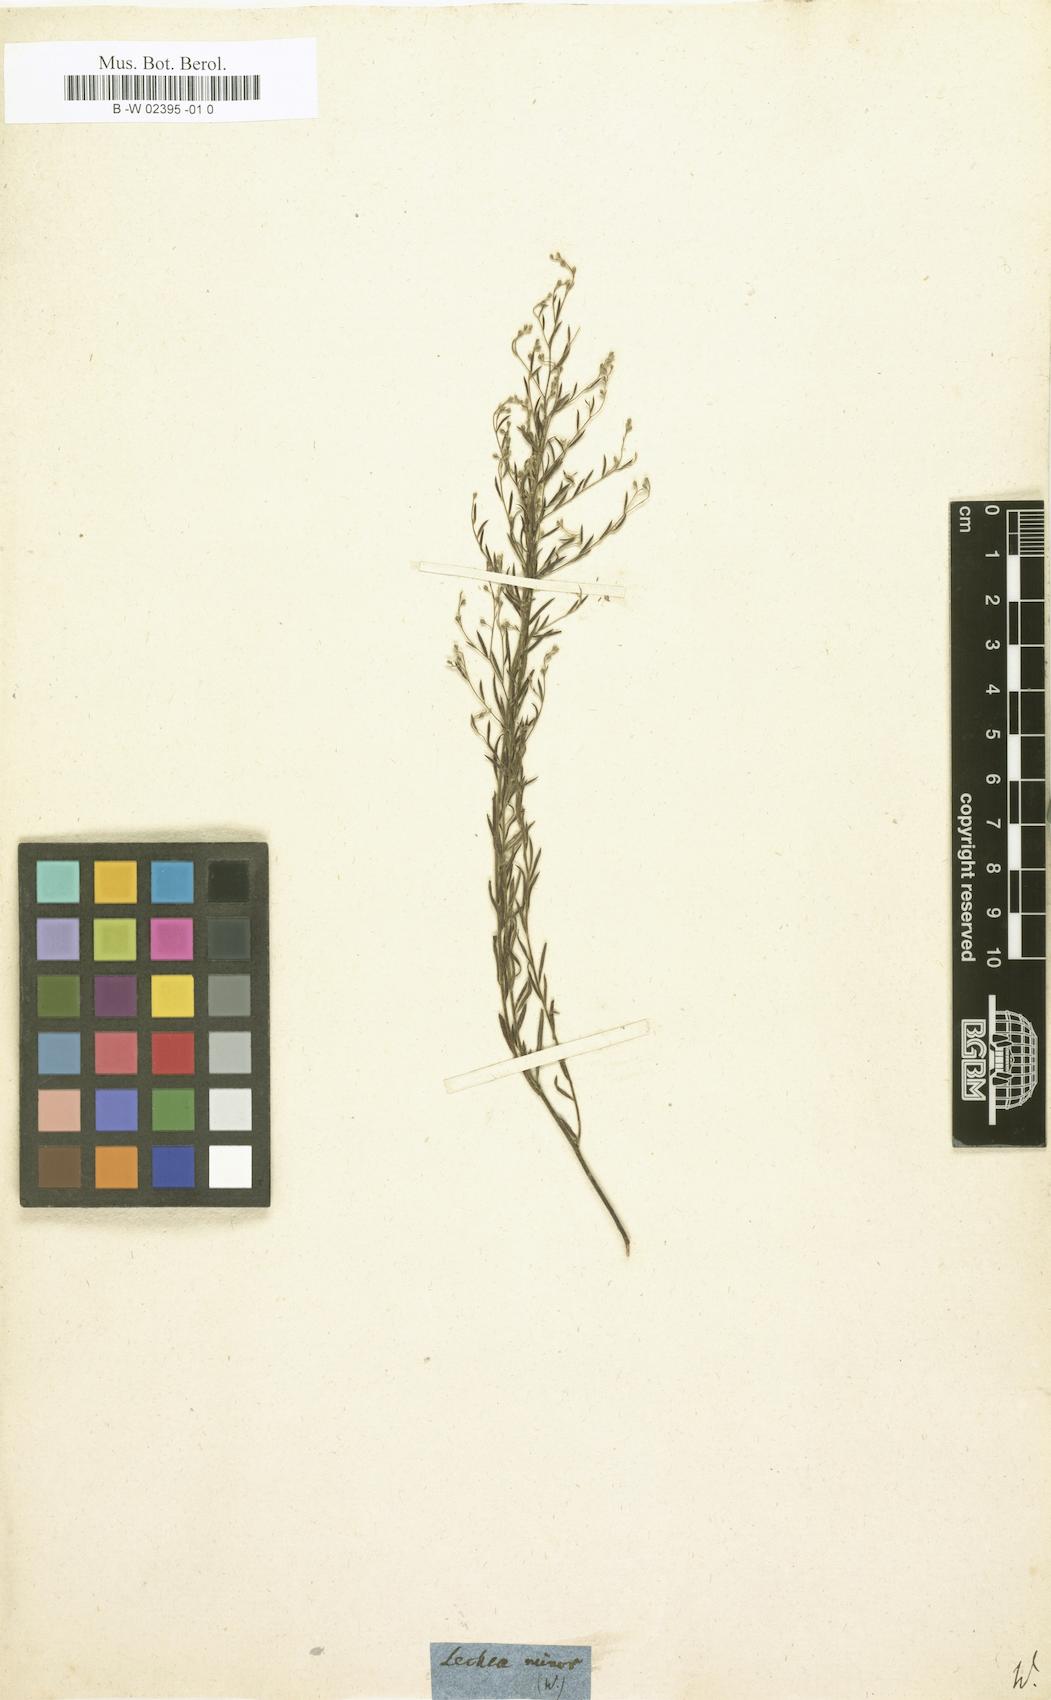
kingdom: Plantae
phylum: Tracheophyta
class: Magnoliopsida
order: Malvales
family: Cistaceae
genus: Lechea
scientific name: Lechea
